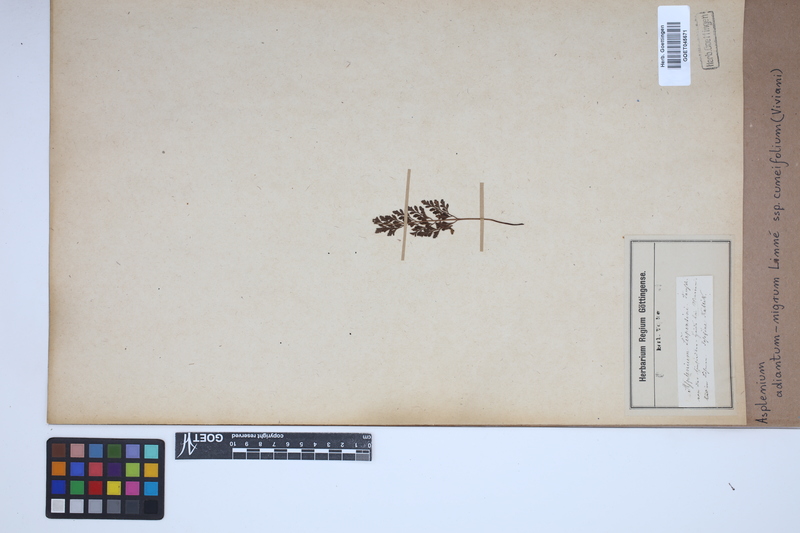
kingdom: Plantae
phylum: Tracheophyta
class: Polypodiopsida
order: Polypodiales
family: Aspleniaceae
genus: Asplenium
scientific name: Asplenium cuneifolium
